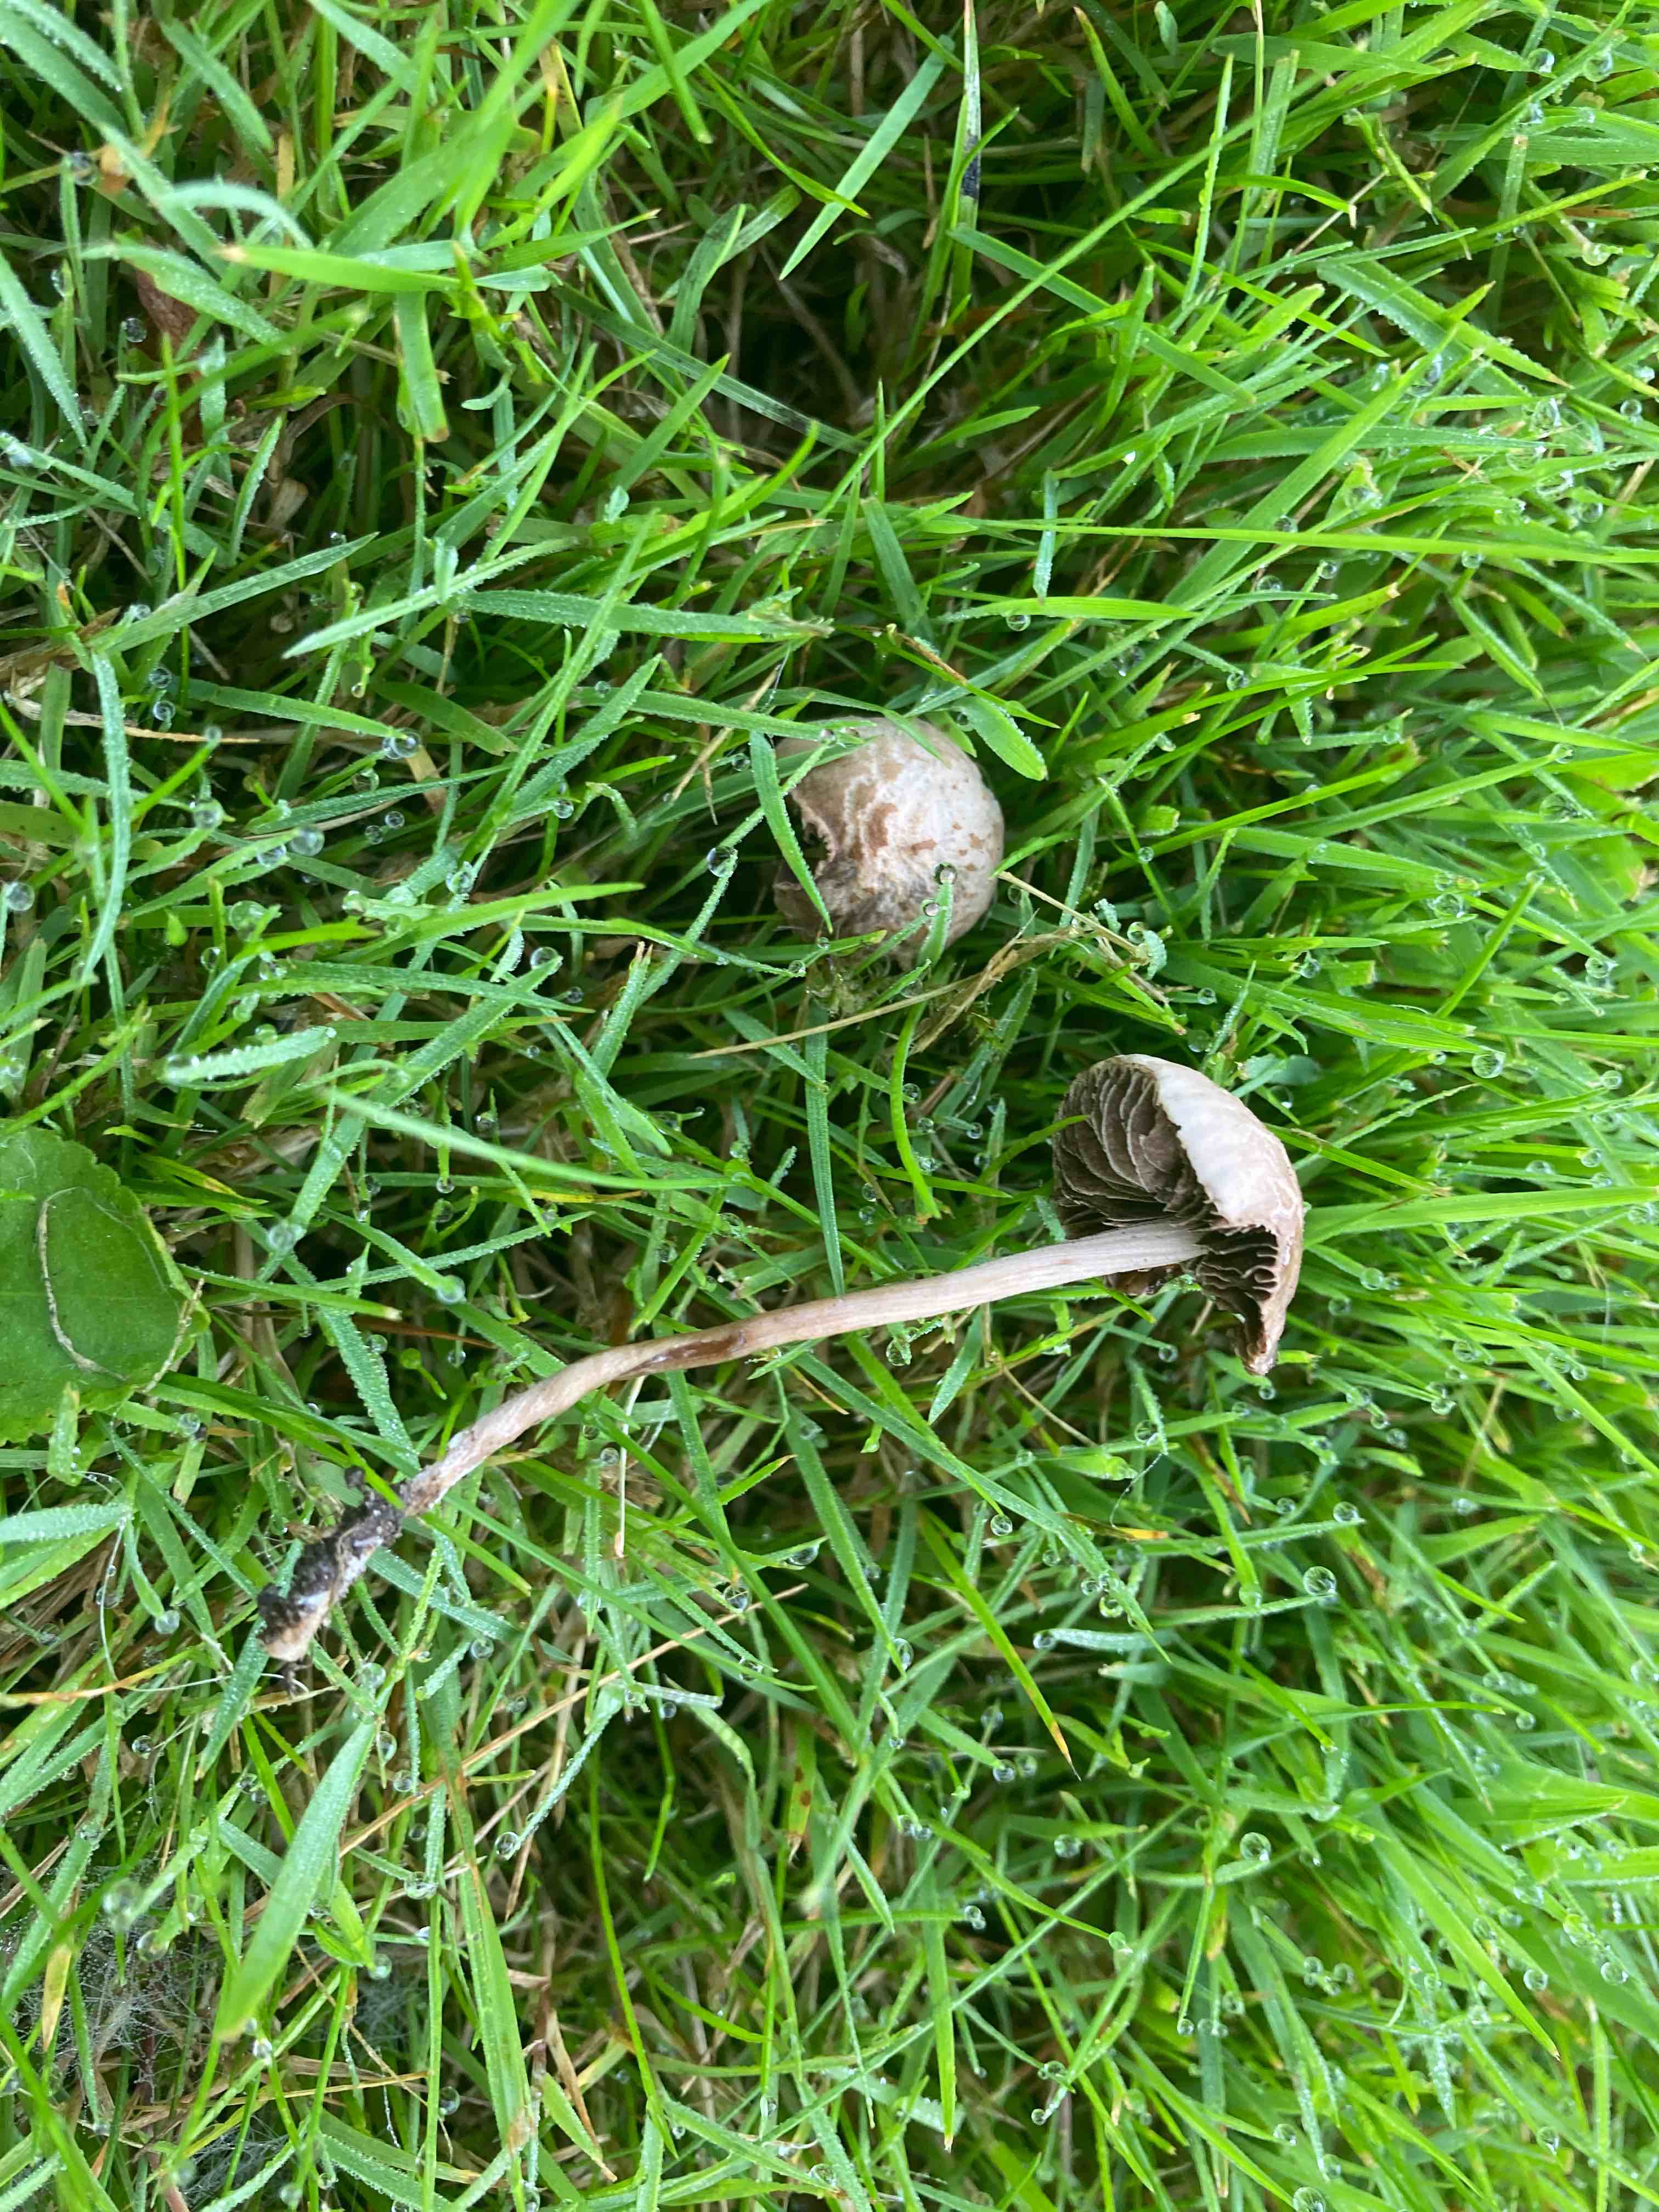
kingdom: Fungi
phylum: Basidiomycota
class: Agaricomycetes
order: Agaricales
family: Bolbitiaceae
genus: Panaeolina
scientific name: Panaeolina foenisecii
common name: høslætsvamp
